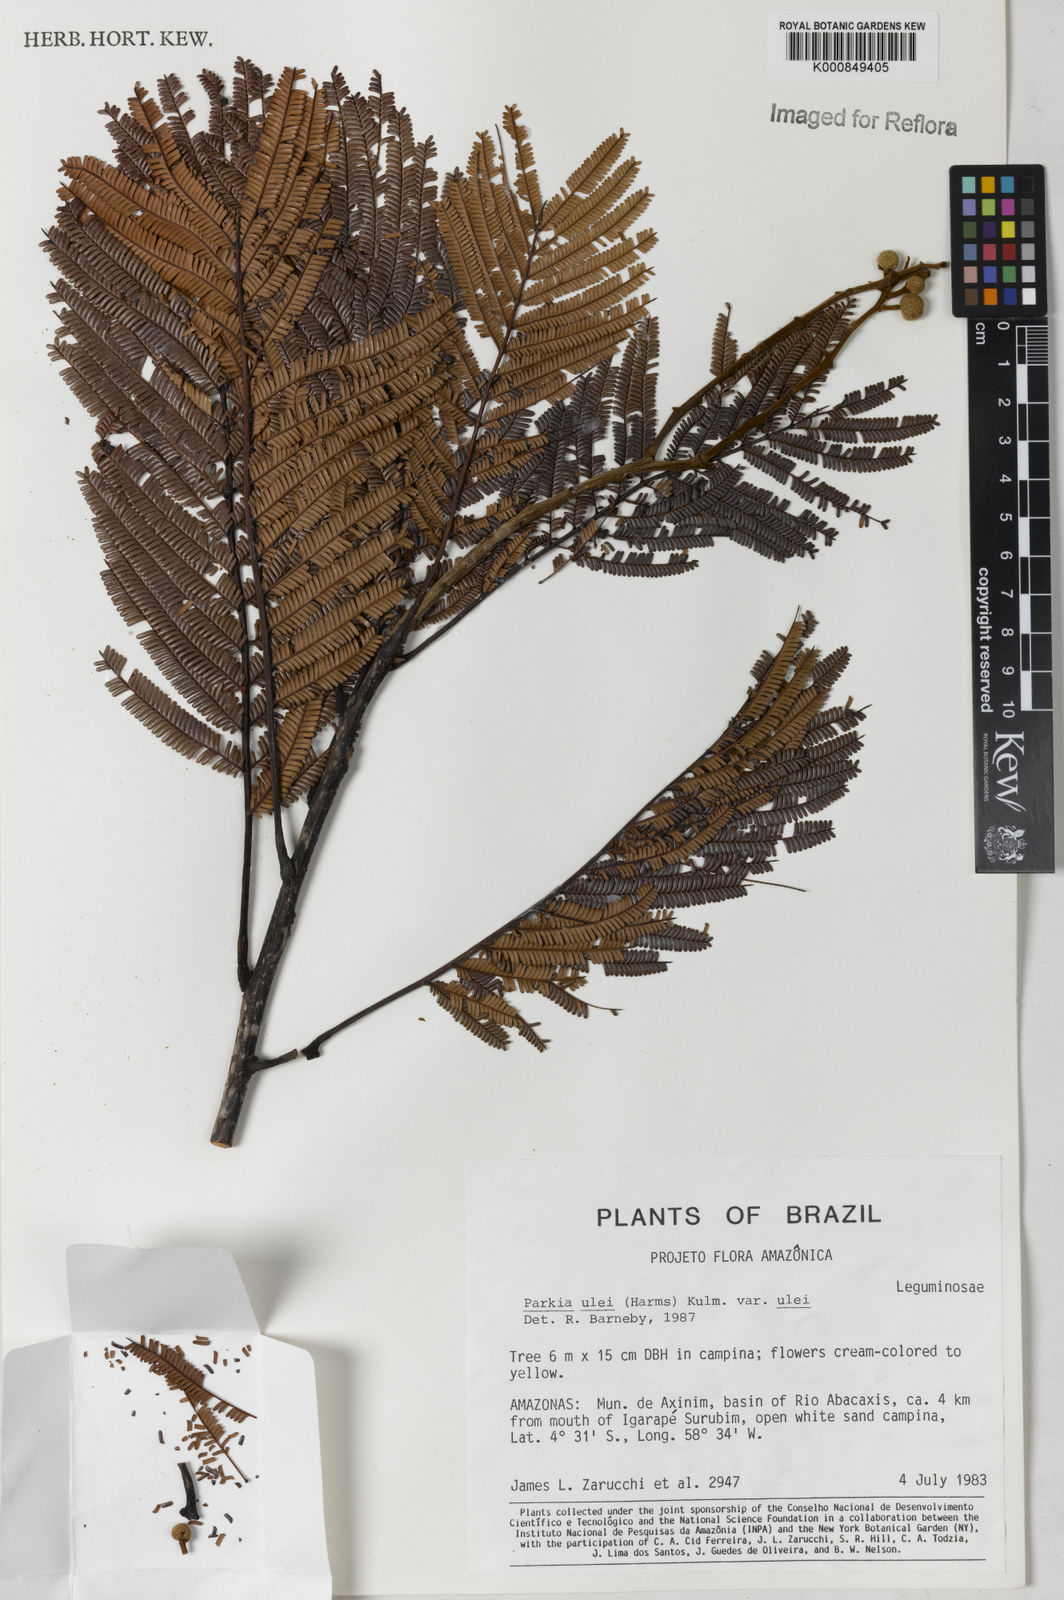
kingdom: Plantae
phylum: Tracheophyta
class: Magnoliopsida
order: Fabales
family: Fabaceae
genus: Parkia
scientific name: Parkia ulei
